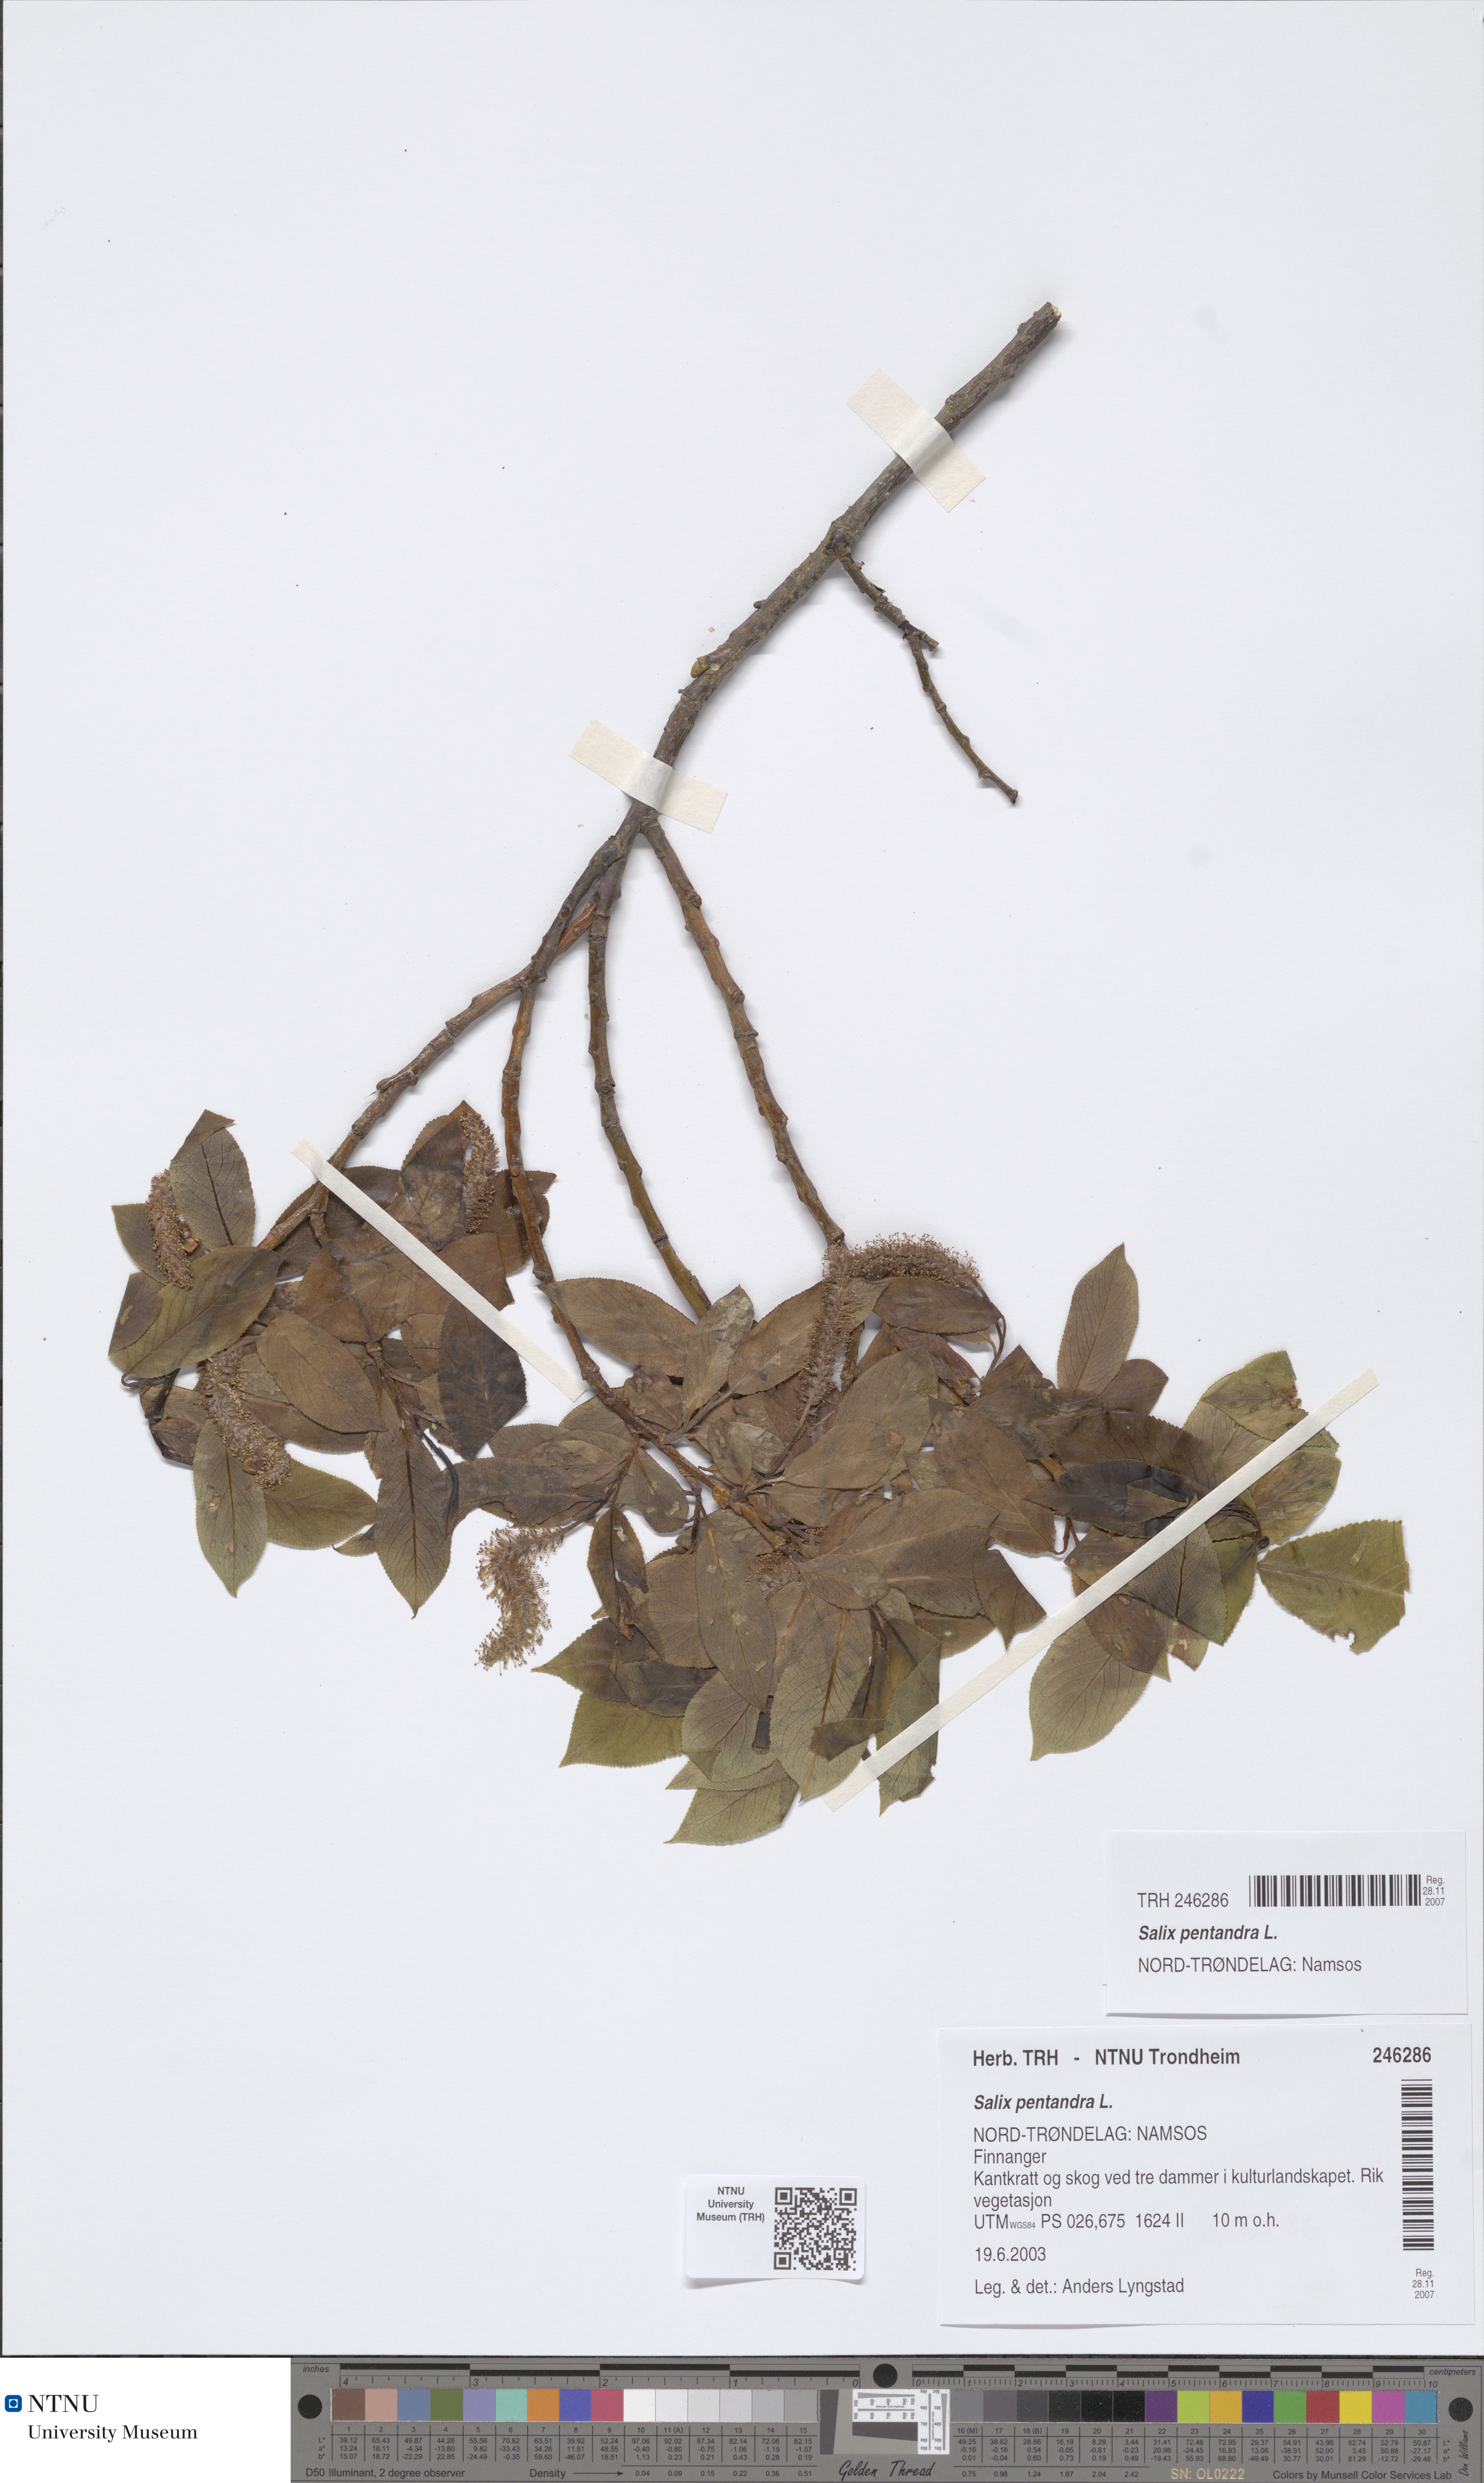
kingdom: Plantae
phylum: Tracheophyta
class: Magnoliopsida
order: Malpighiales
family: Salicaceae
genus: Salix
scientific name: Salix pentandra
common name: Bay willow
